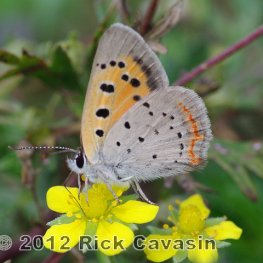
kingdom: Animalia
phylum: Arthropoda
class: Insecta
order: Lepidoptera
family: Lycaenidae
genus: Lycaena
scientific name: Lycaena phlaeas
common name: American Copper
